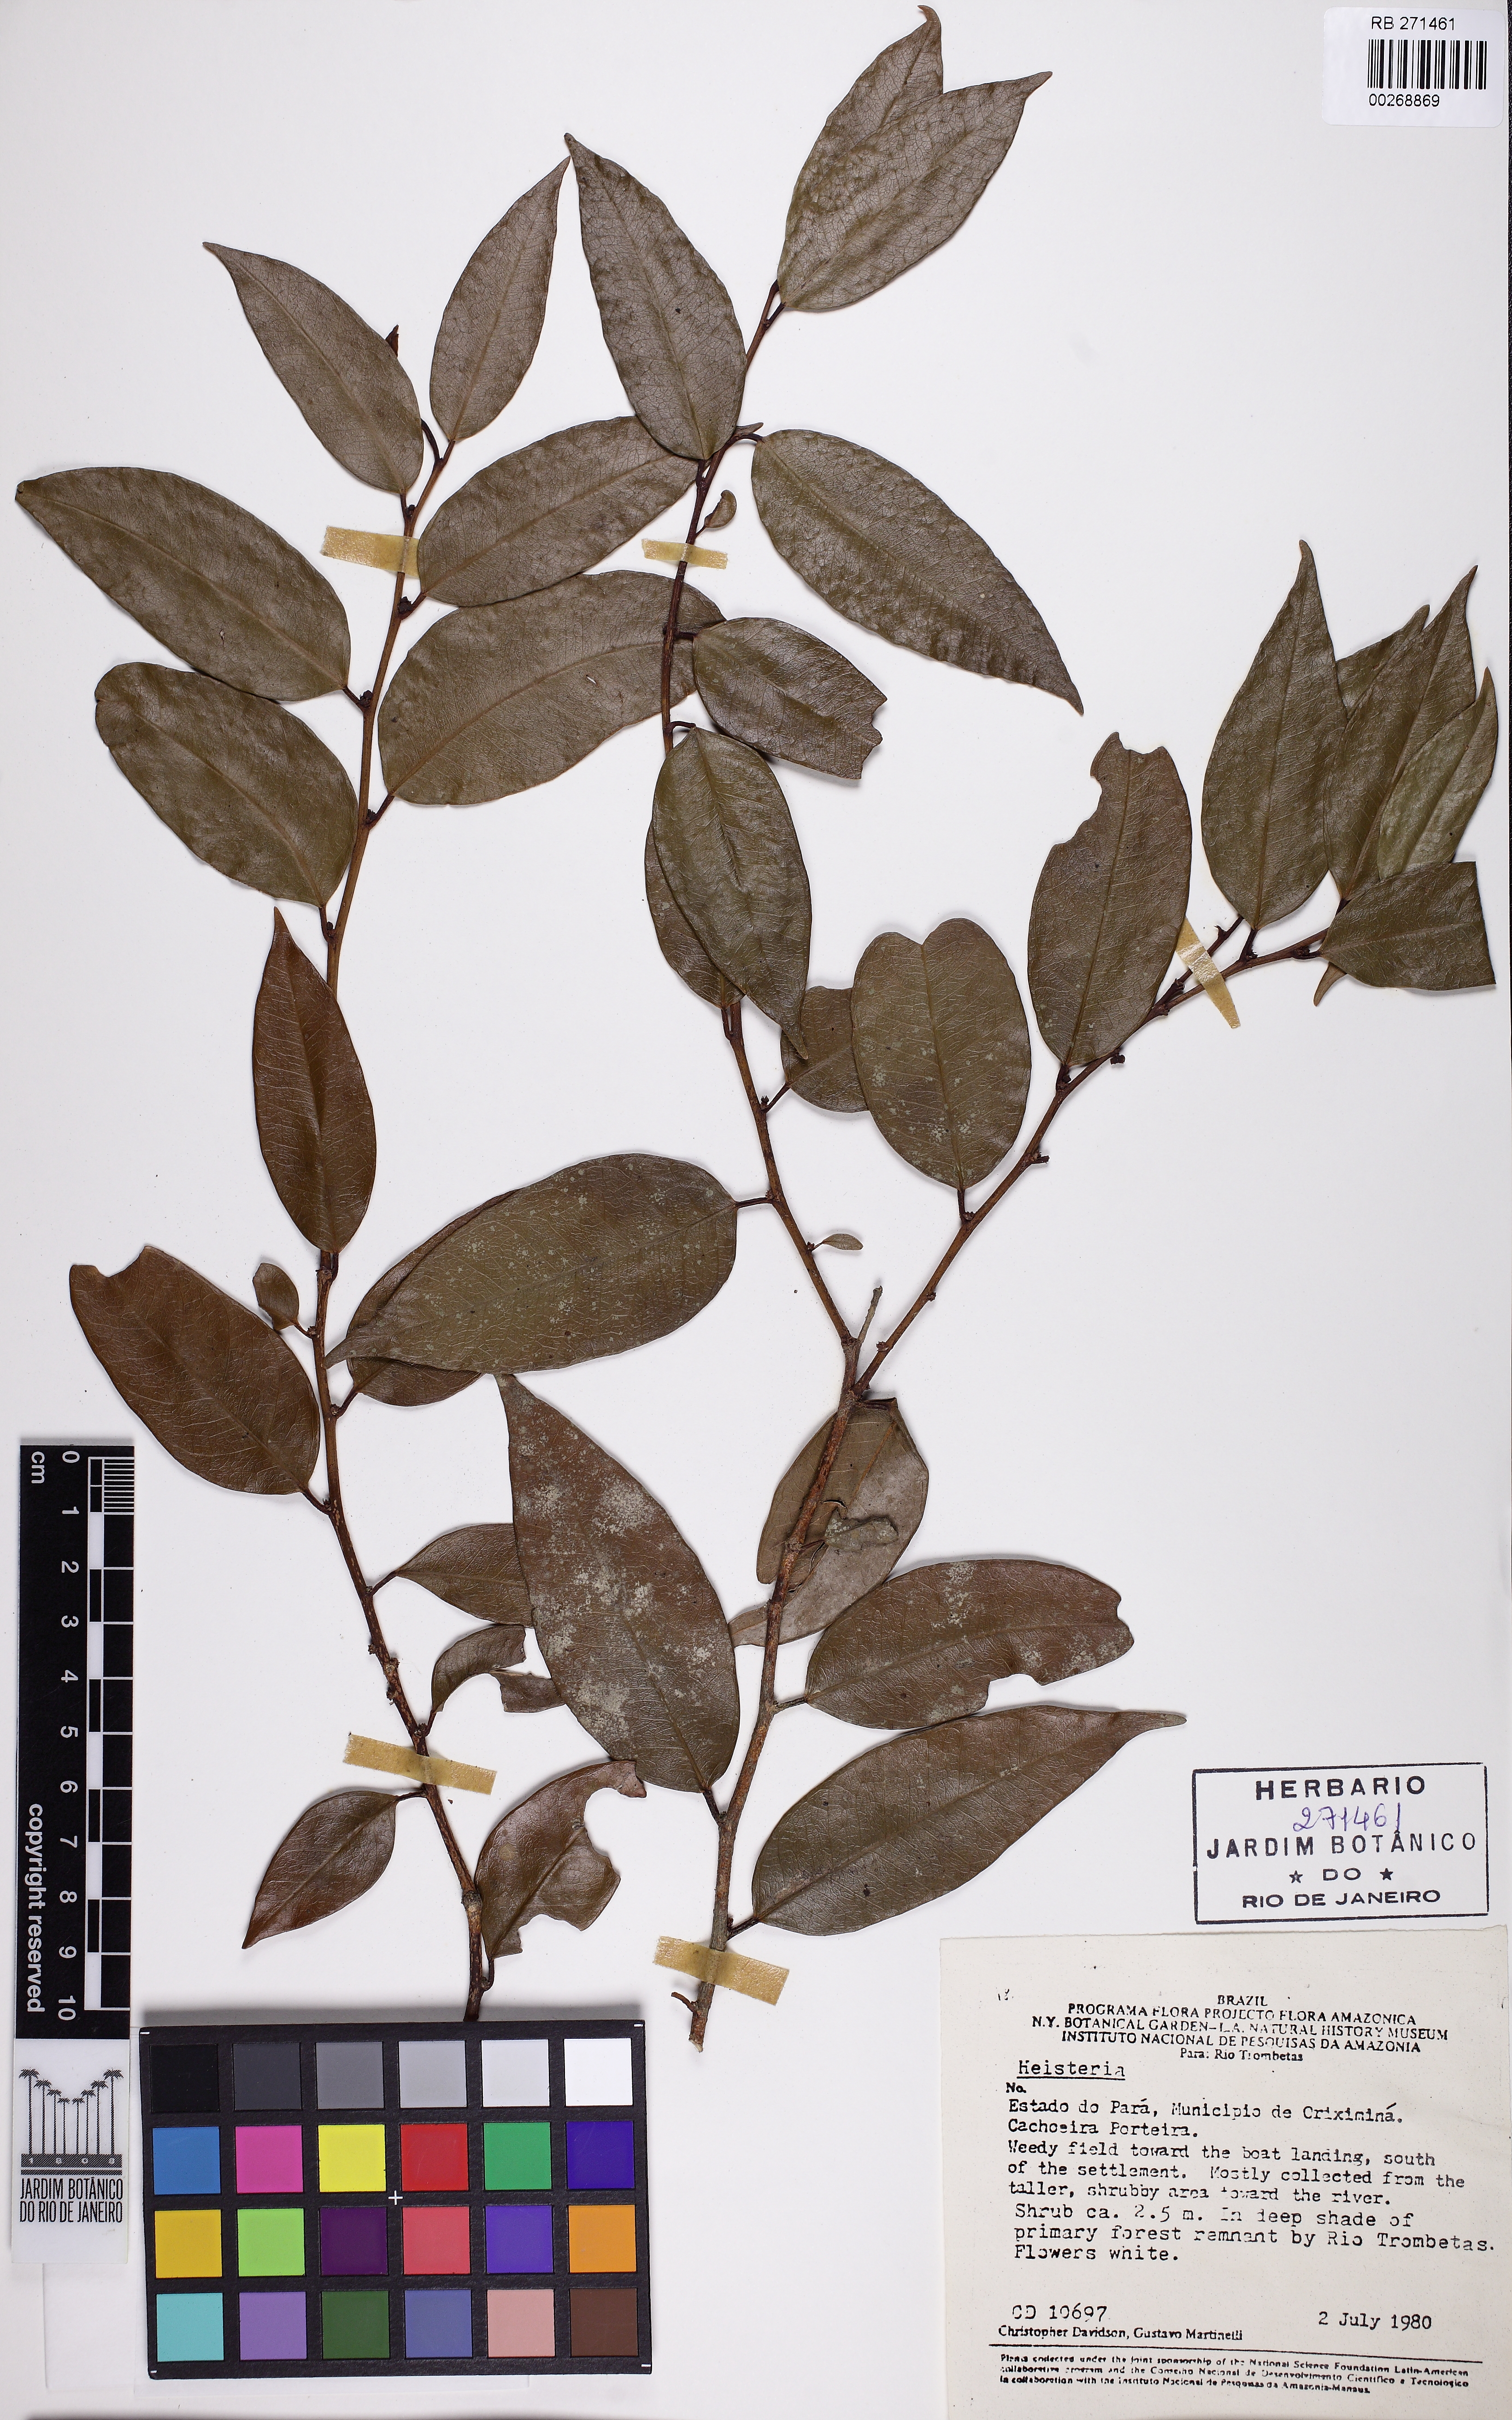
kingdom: Plantae
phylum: Tracheophyta
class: Magnoliopsida
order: Santalales
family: Erythropalaceae
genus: Heisteria
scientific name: Heisteria
